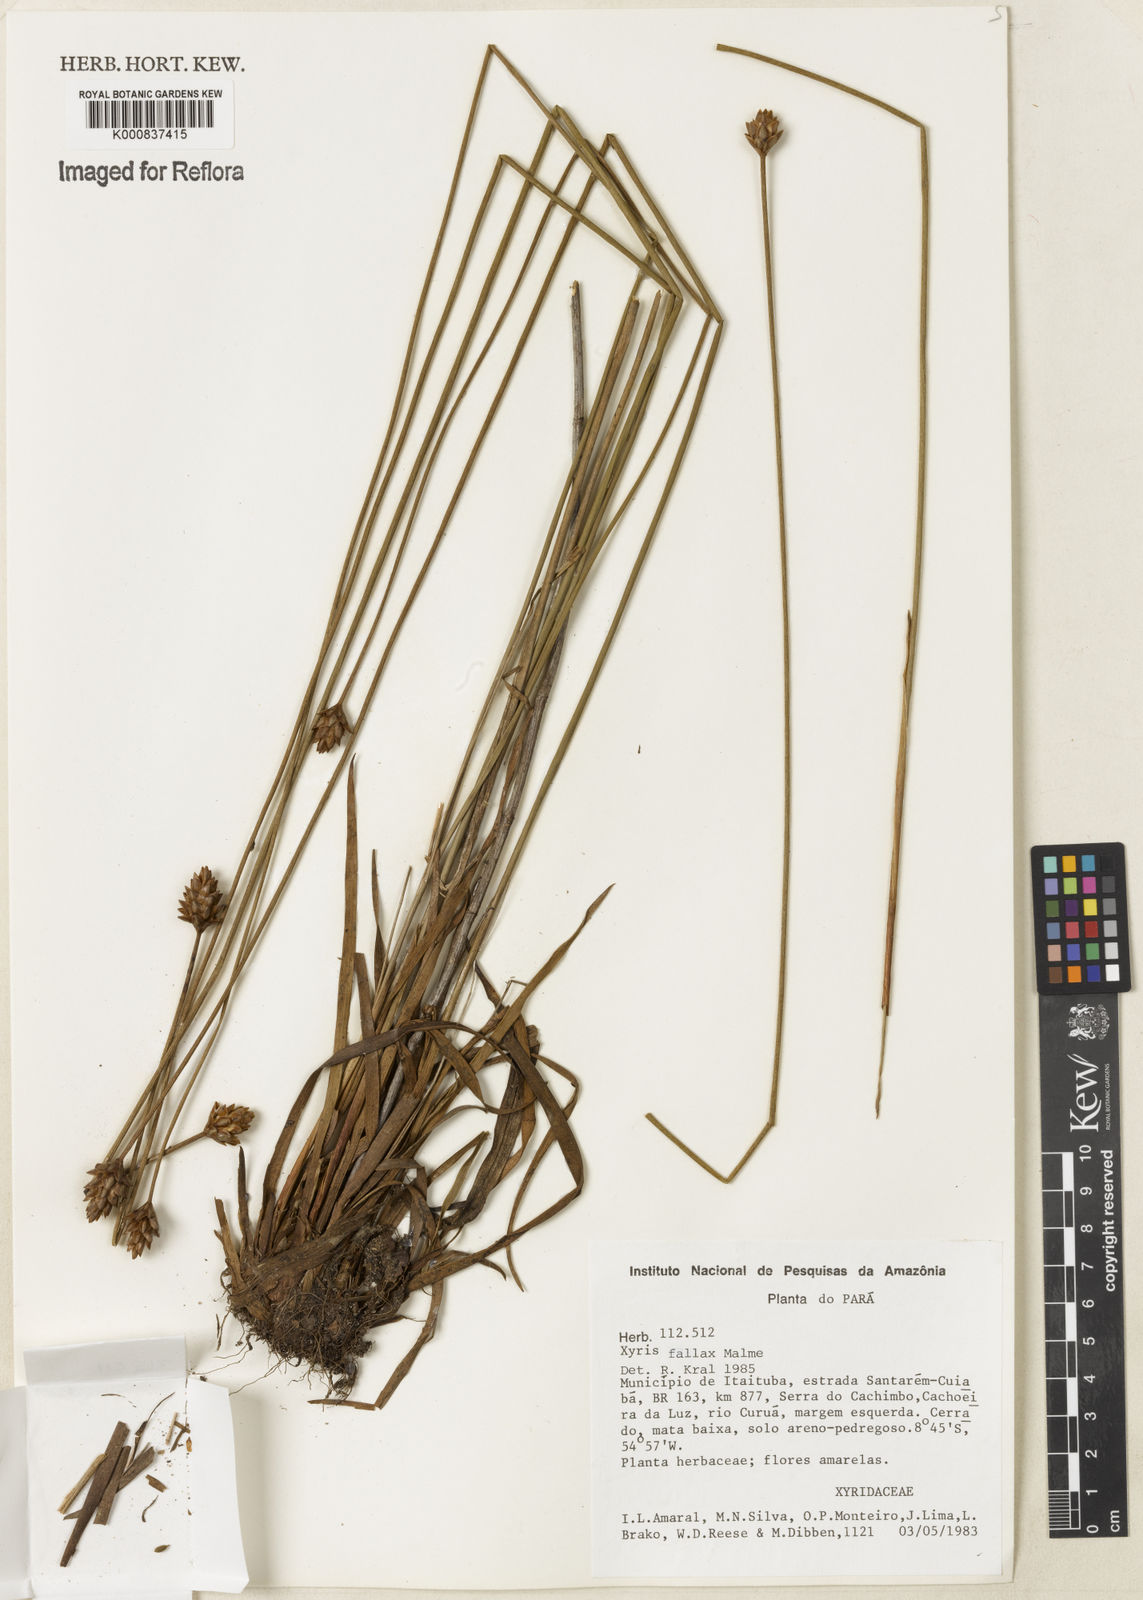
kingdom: Plantae
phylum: Tracheophyta
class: Liliopsida
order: Poales
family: Xyridaceae
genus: Xyris
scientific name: Xyris fallax
